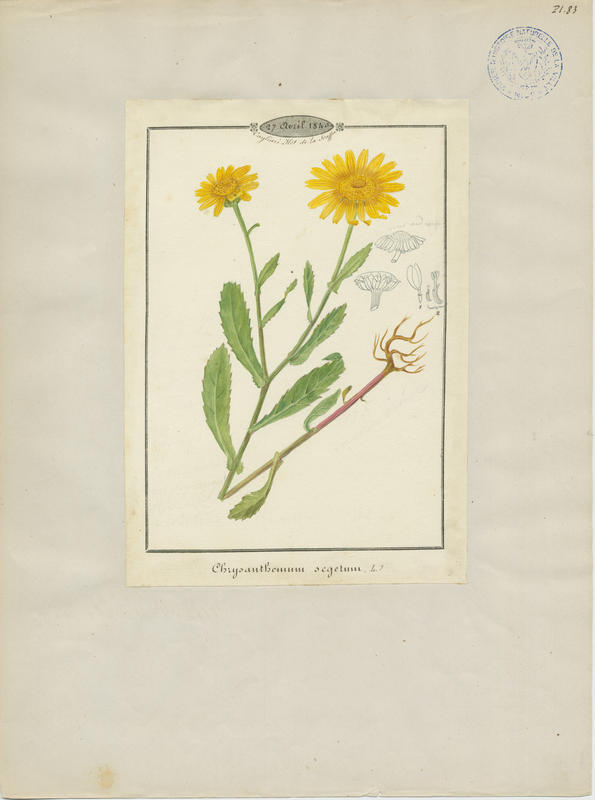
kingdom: Plantae
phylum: Tracheophyta
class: Magnoliopsida
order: Asterales
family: Asteraceae
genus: Glebionis
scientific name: Glebionis segetum
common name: Corndaisy
